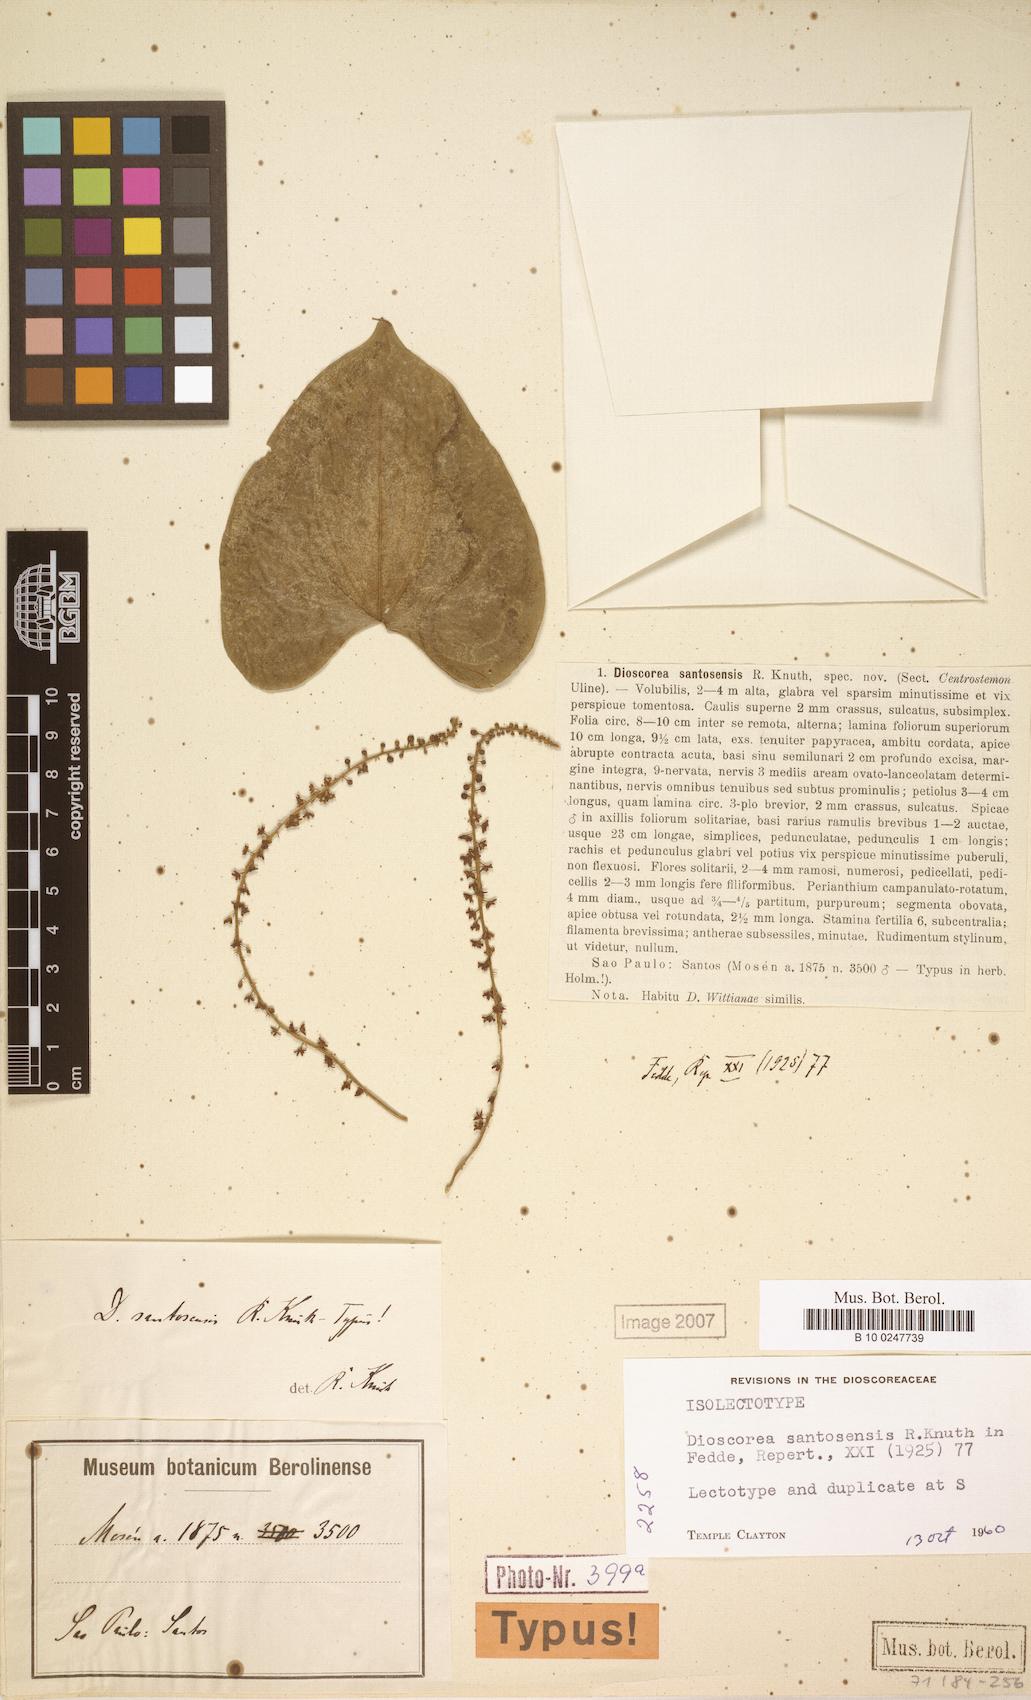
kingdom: Plantae
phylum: Tracheophyta
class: Liliopsida
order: Dioscoreales
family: Dioscoreaceae
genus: Dioscorea
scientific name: Dioscorea santosensis
